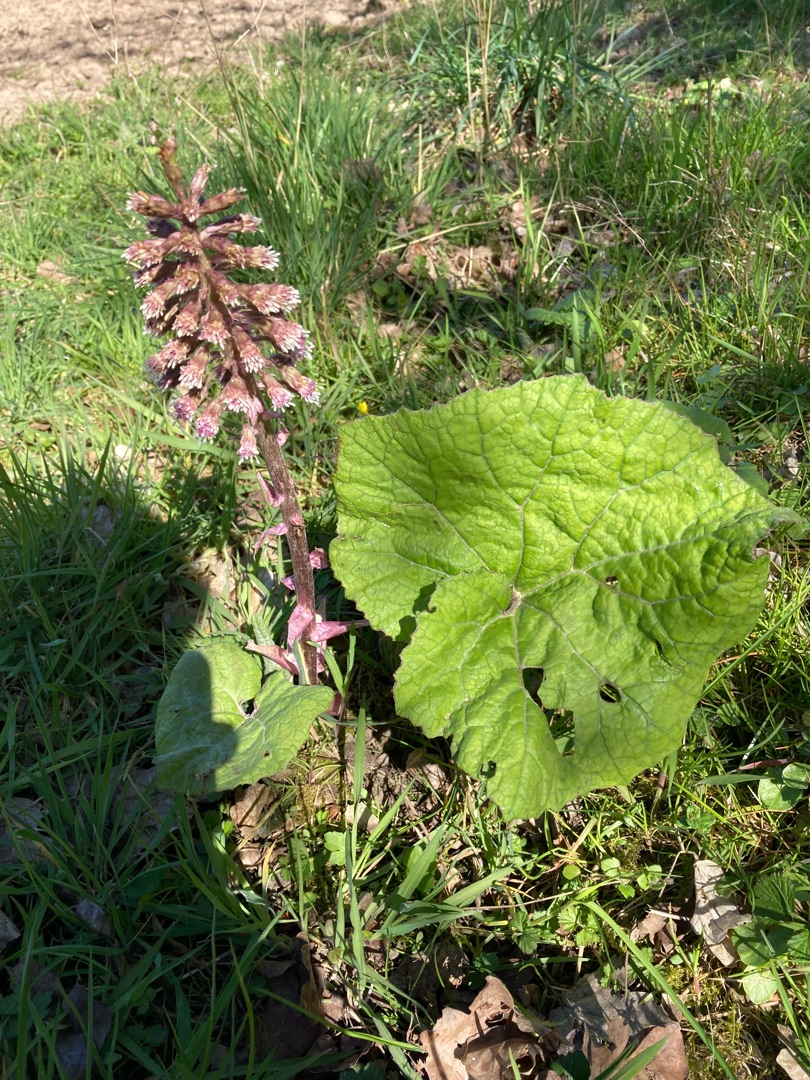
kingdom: Plantae
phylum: Tracheophyta
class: Magnoliopsida
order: Asterales
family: Asteraceae
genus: Petasites
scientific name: Petasites hybridus
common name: Rød hestehov
